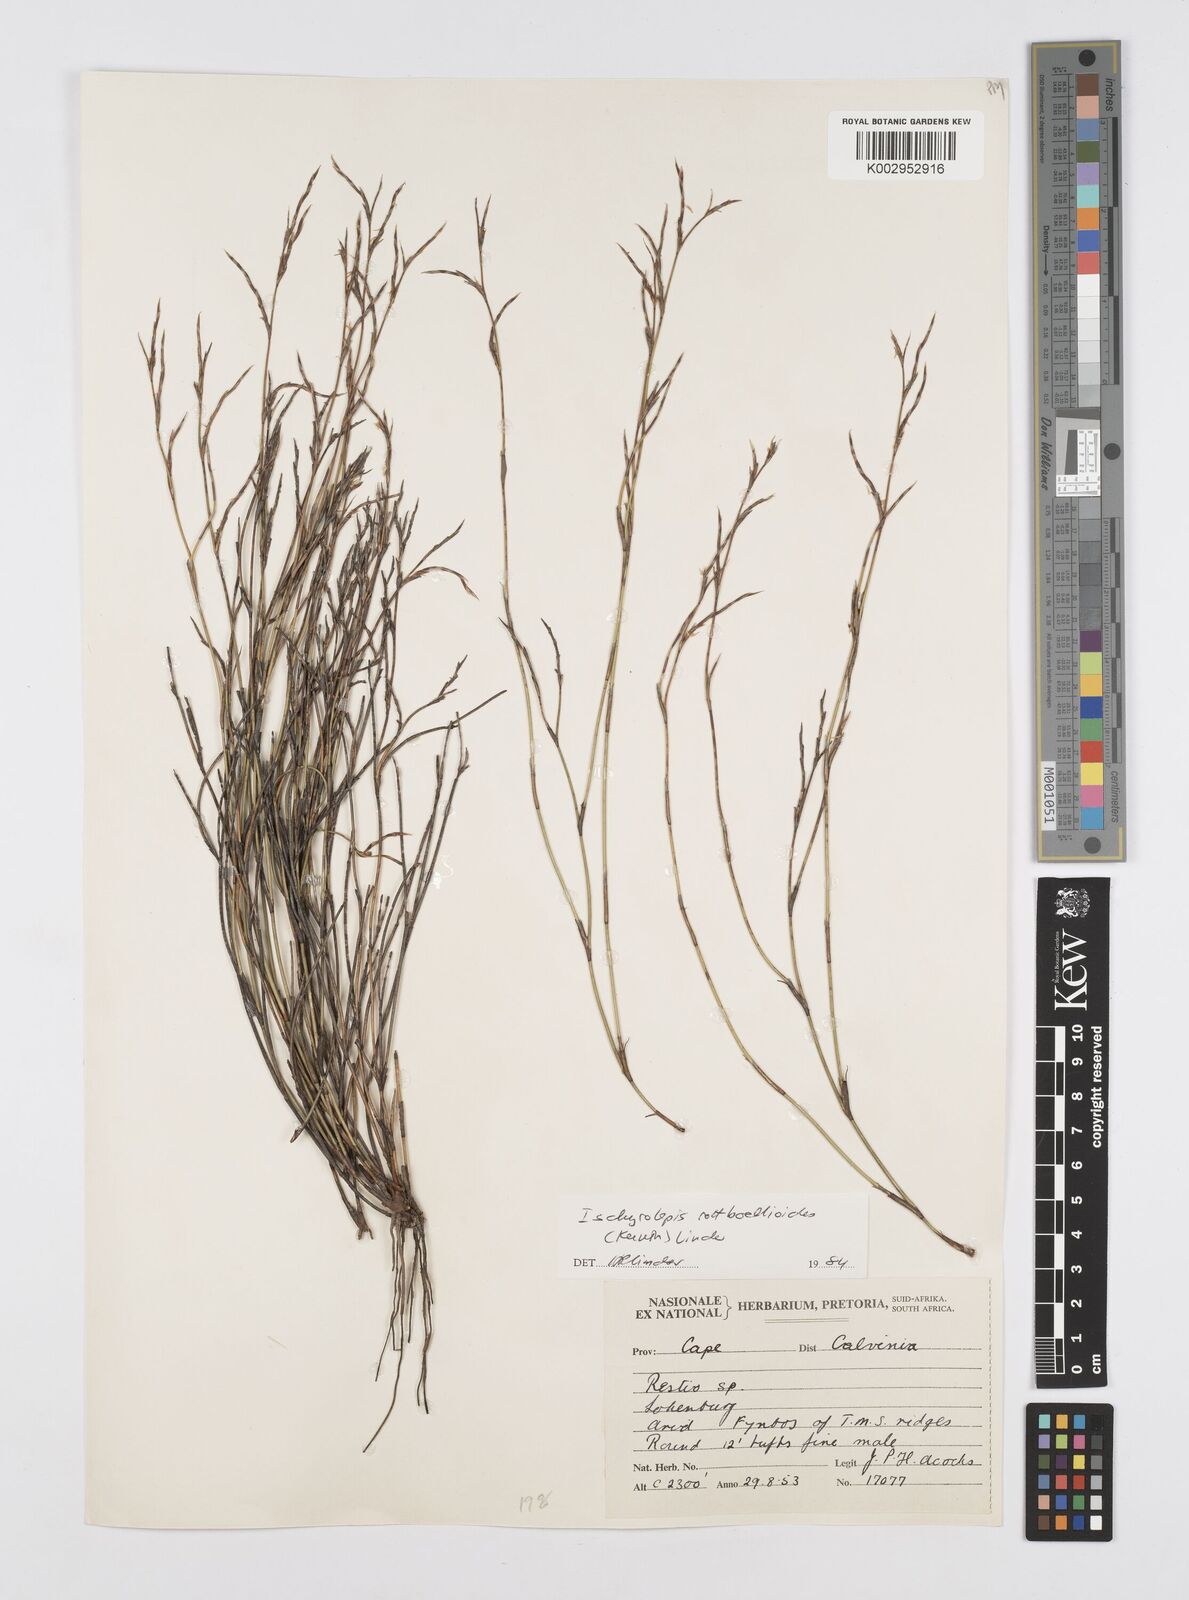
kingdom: Plantae
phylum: Tracheophyta
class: Liliopsida
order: Poales
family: Restionaceae
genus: Restio
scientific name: Restio rottboellioides
